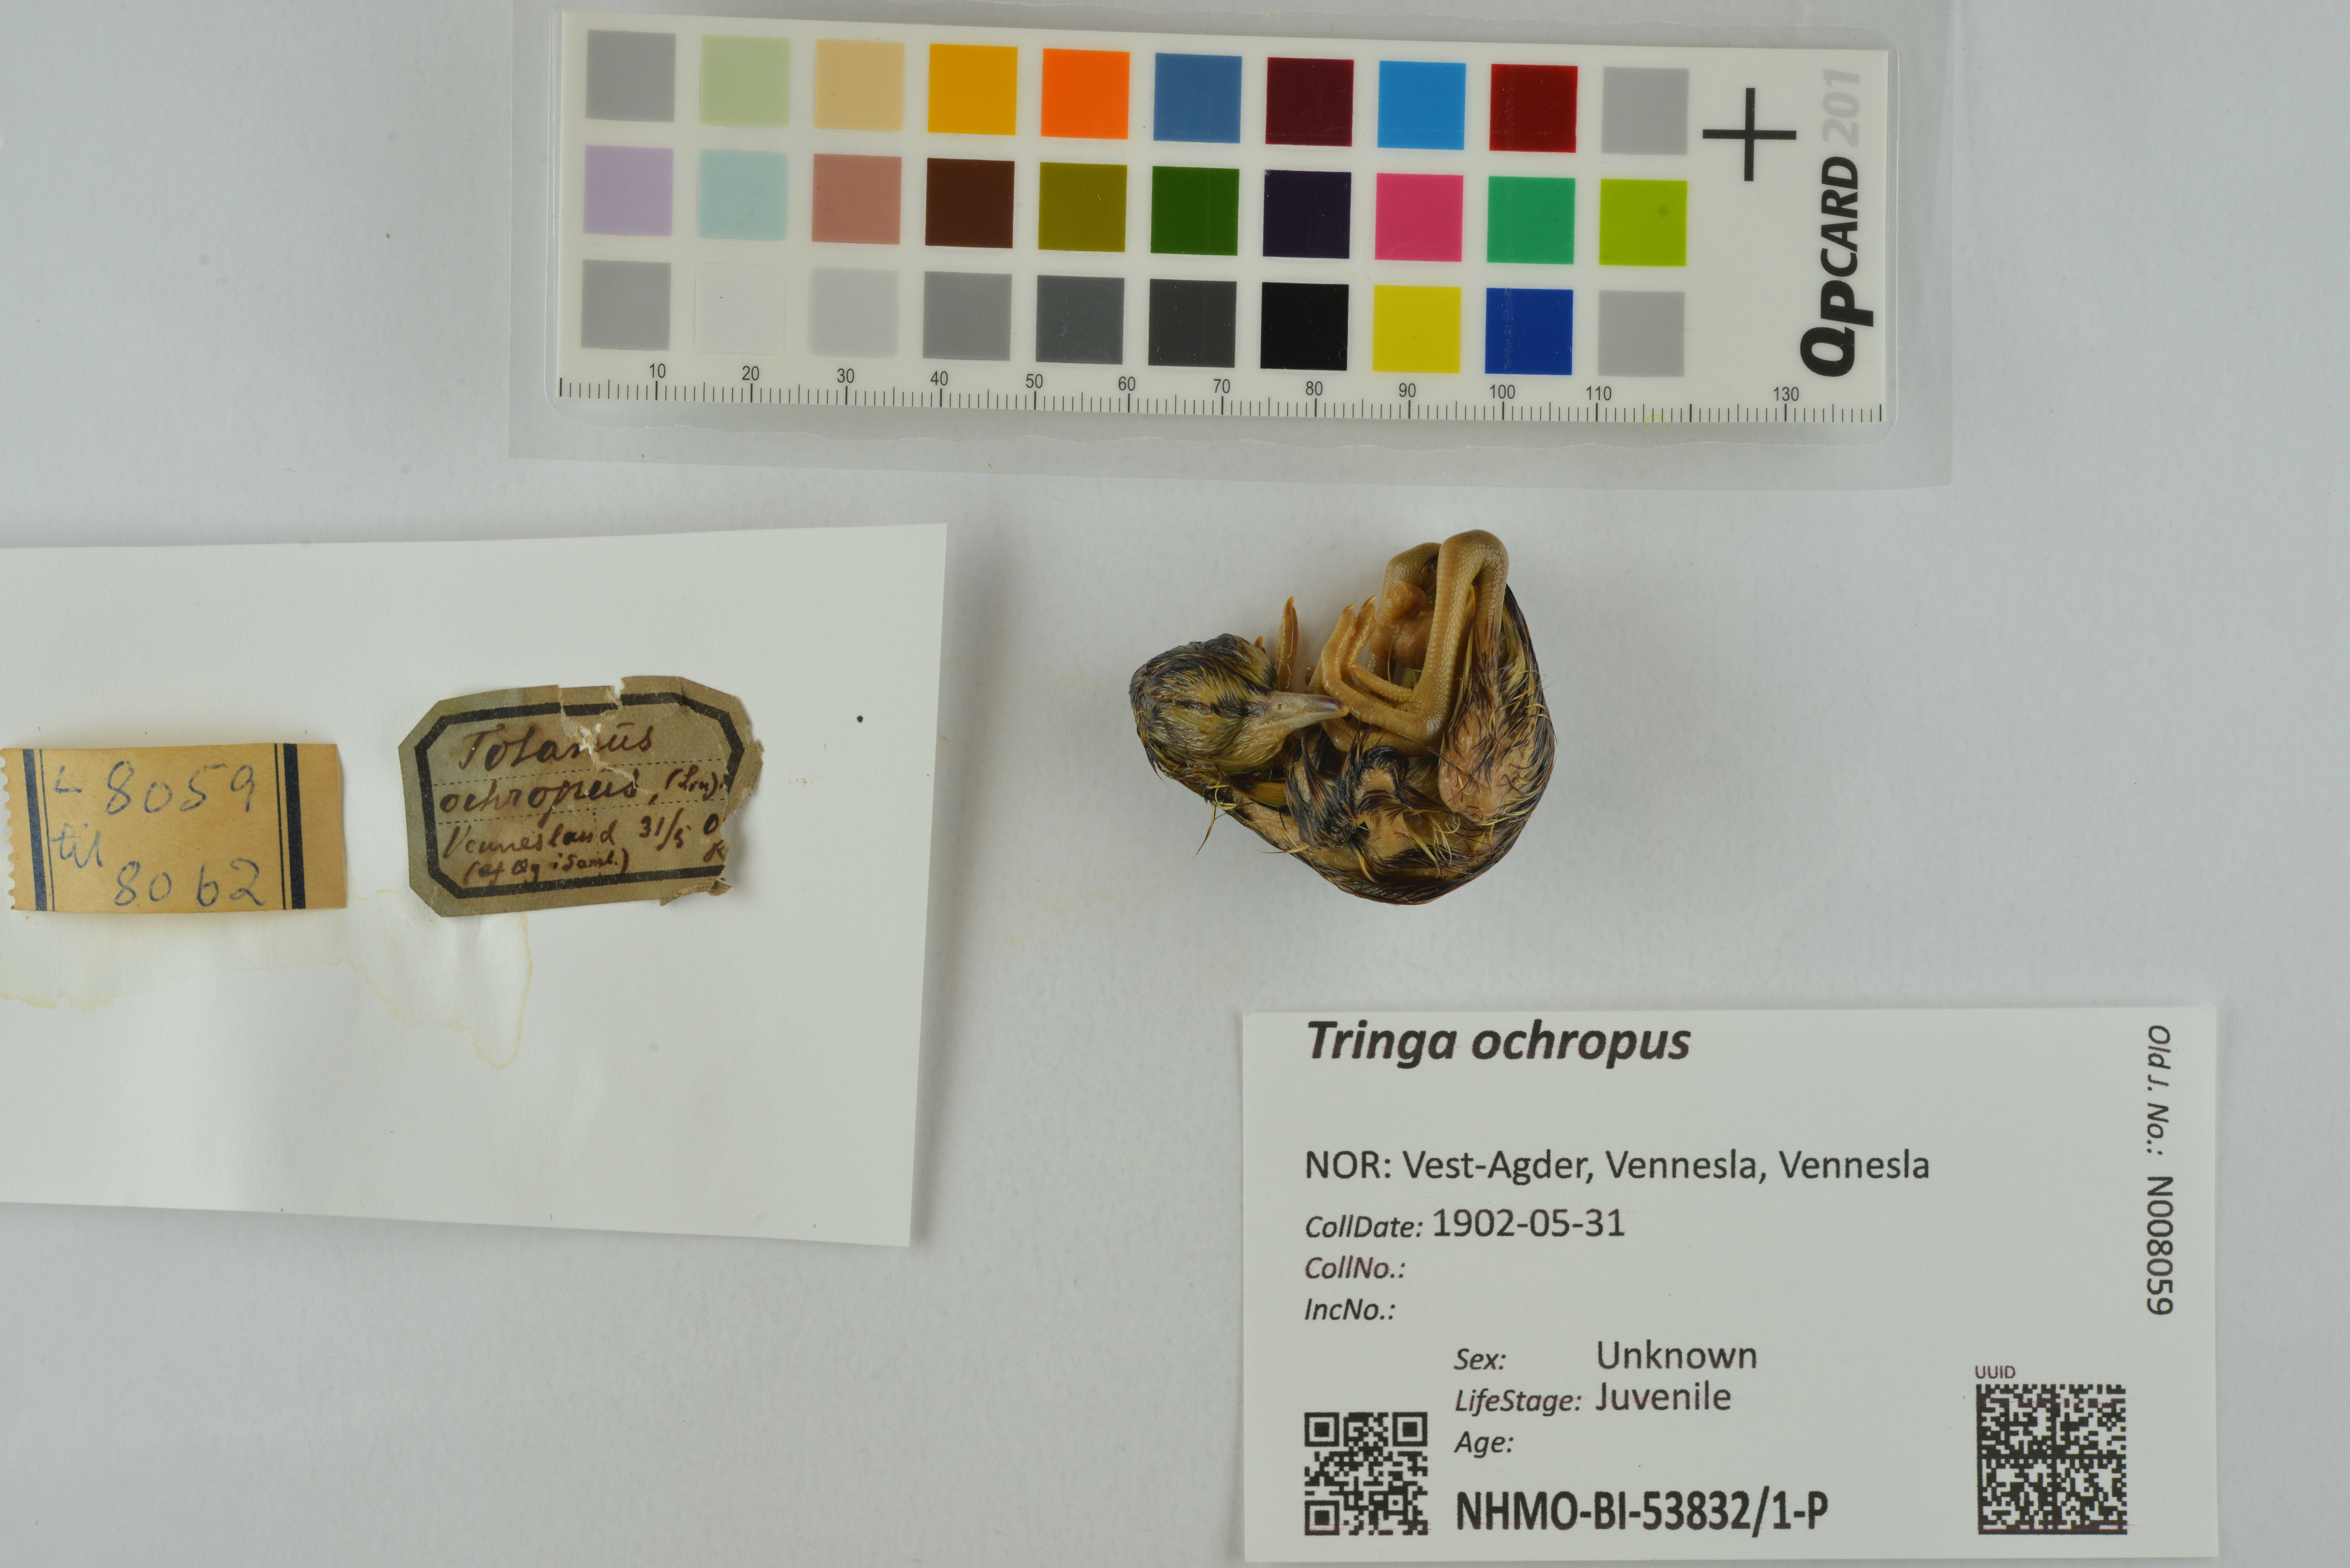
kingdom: Animalia
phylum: Chordata
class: Aves
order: Charadriiformes
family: Scolopacidae
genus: Tringa
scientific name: Tringa ochropus
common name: Green sandpiper
